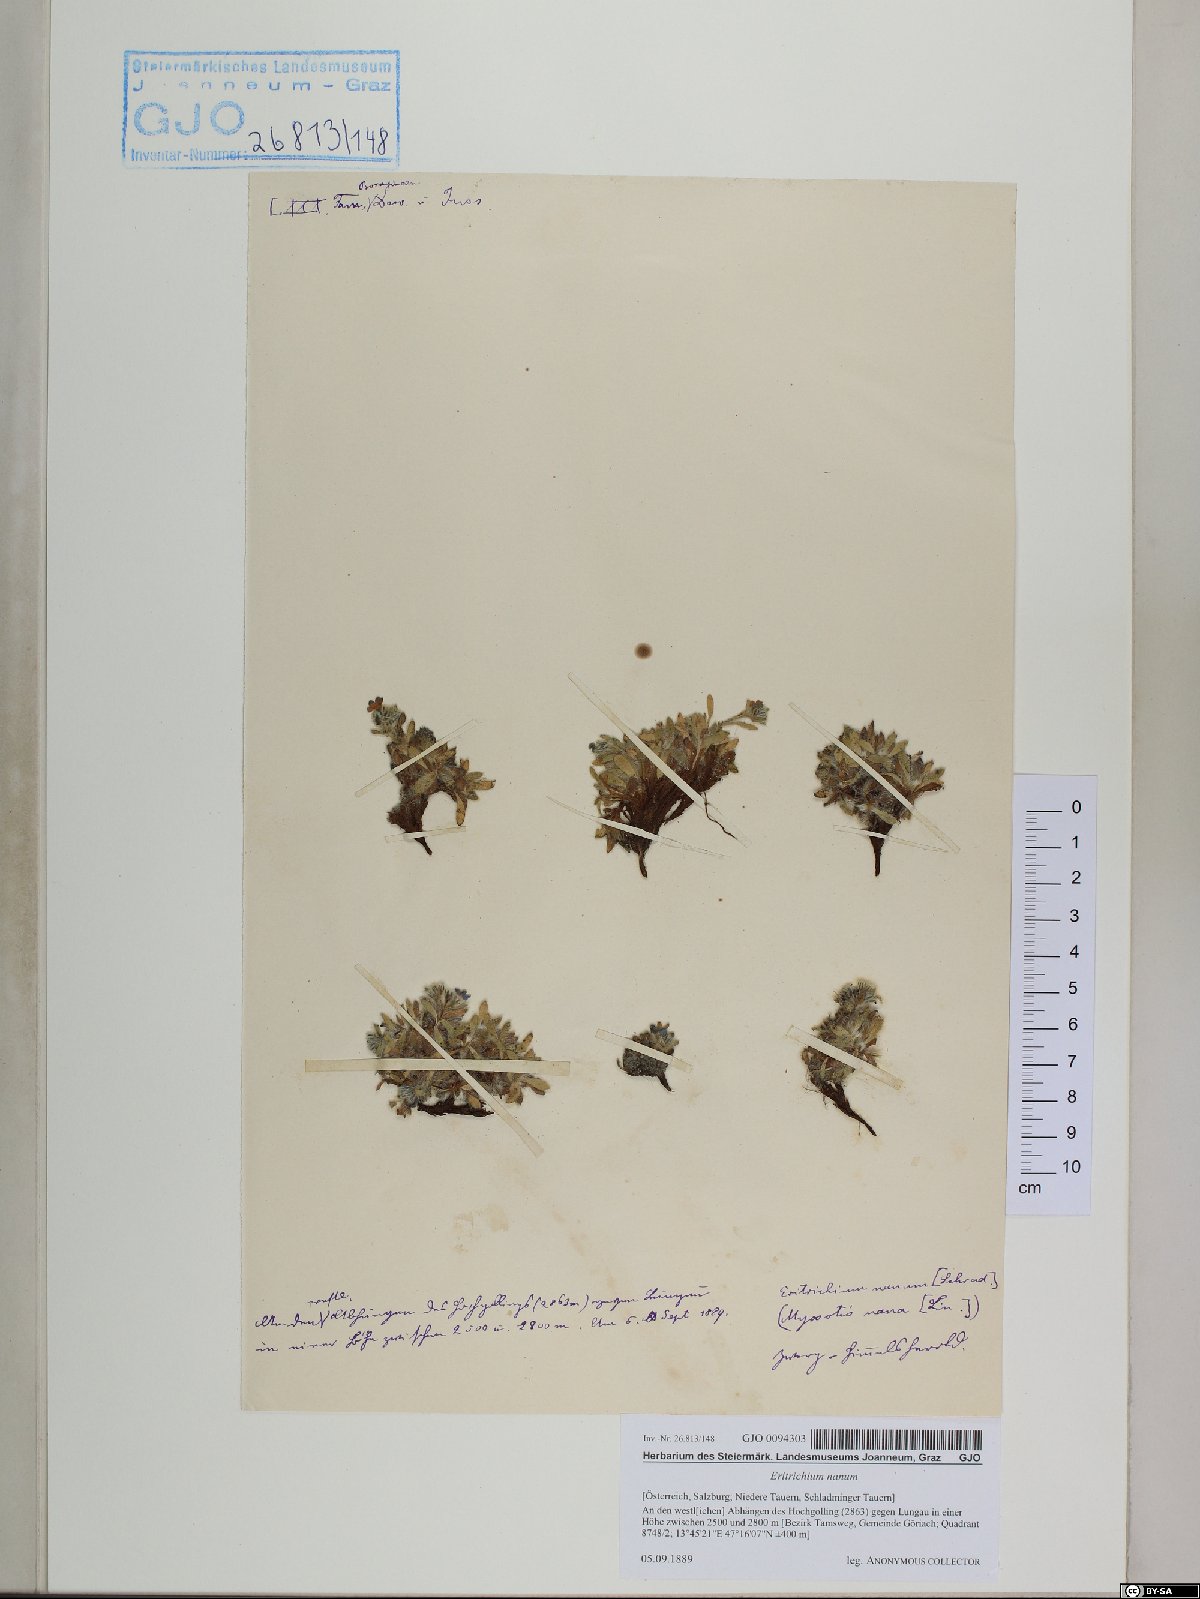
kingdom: Plantae
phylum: Tracheophyta
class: Magnoliopsida
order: Boraginales
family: Boraginaceae
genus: Eritrichium
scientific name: Eritrichium nanum
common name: King-of-the-alps
